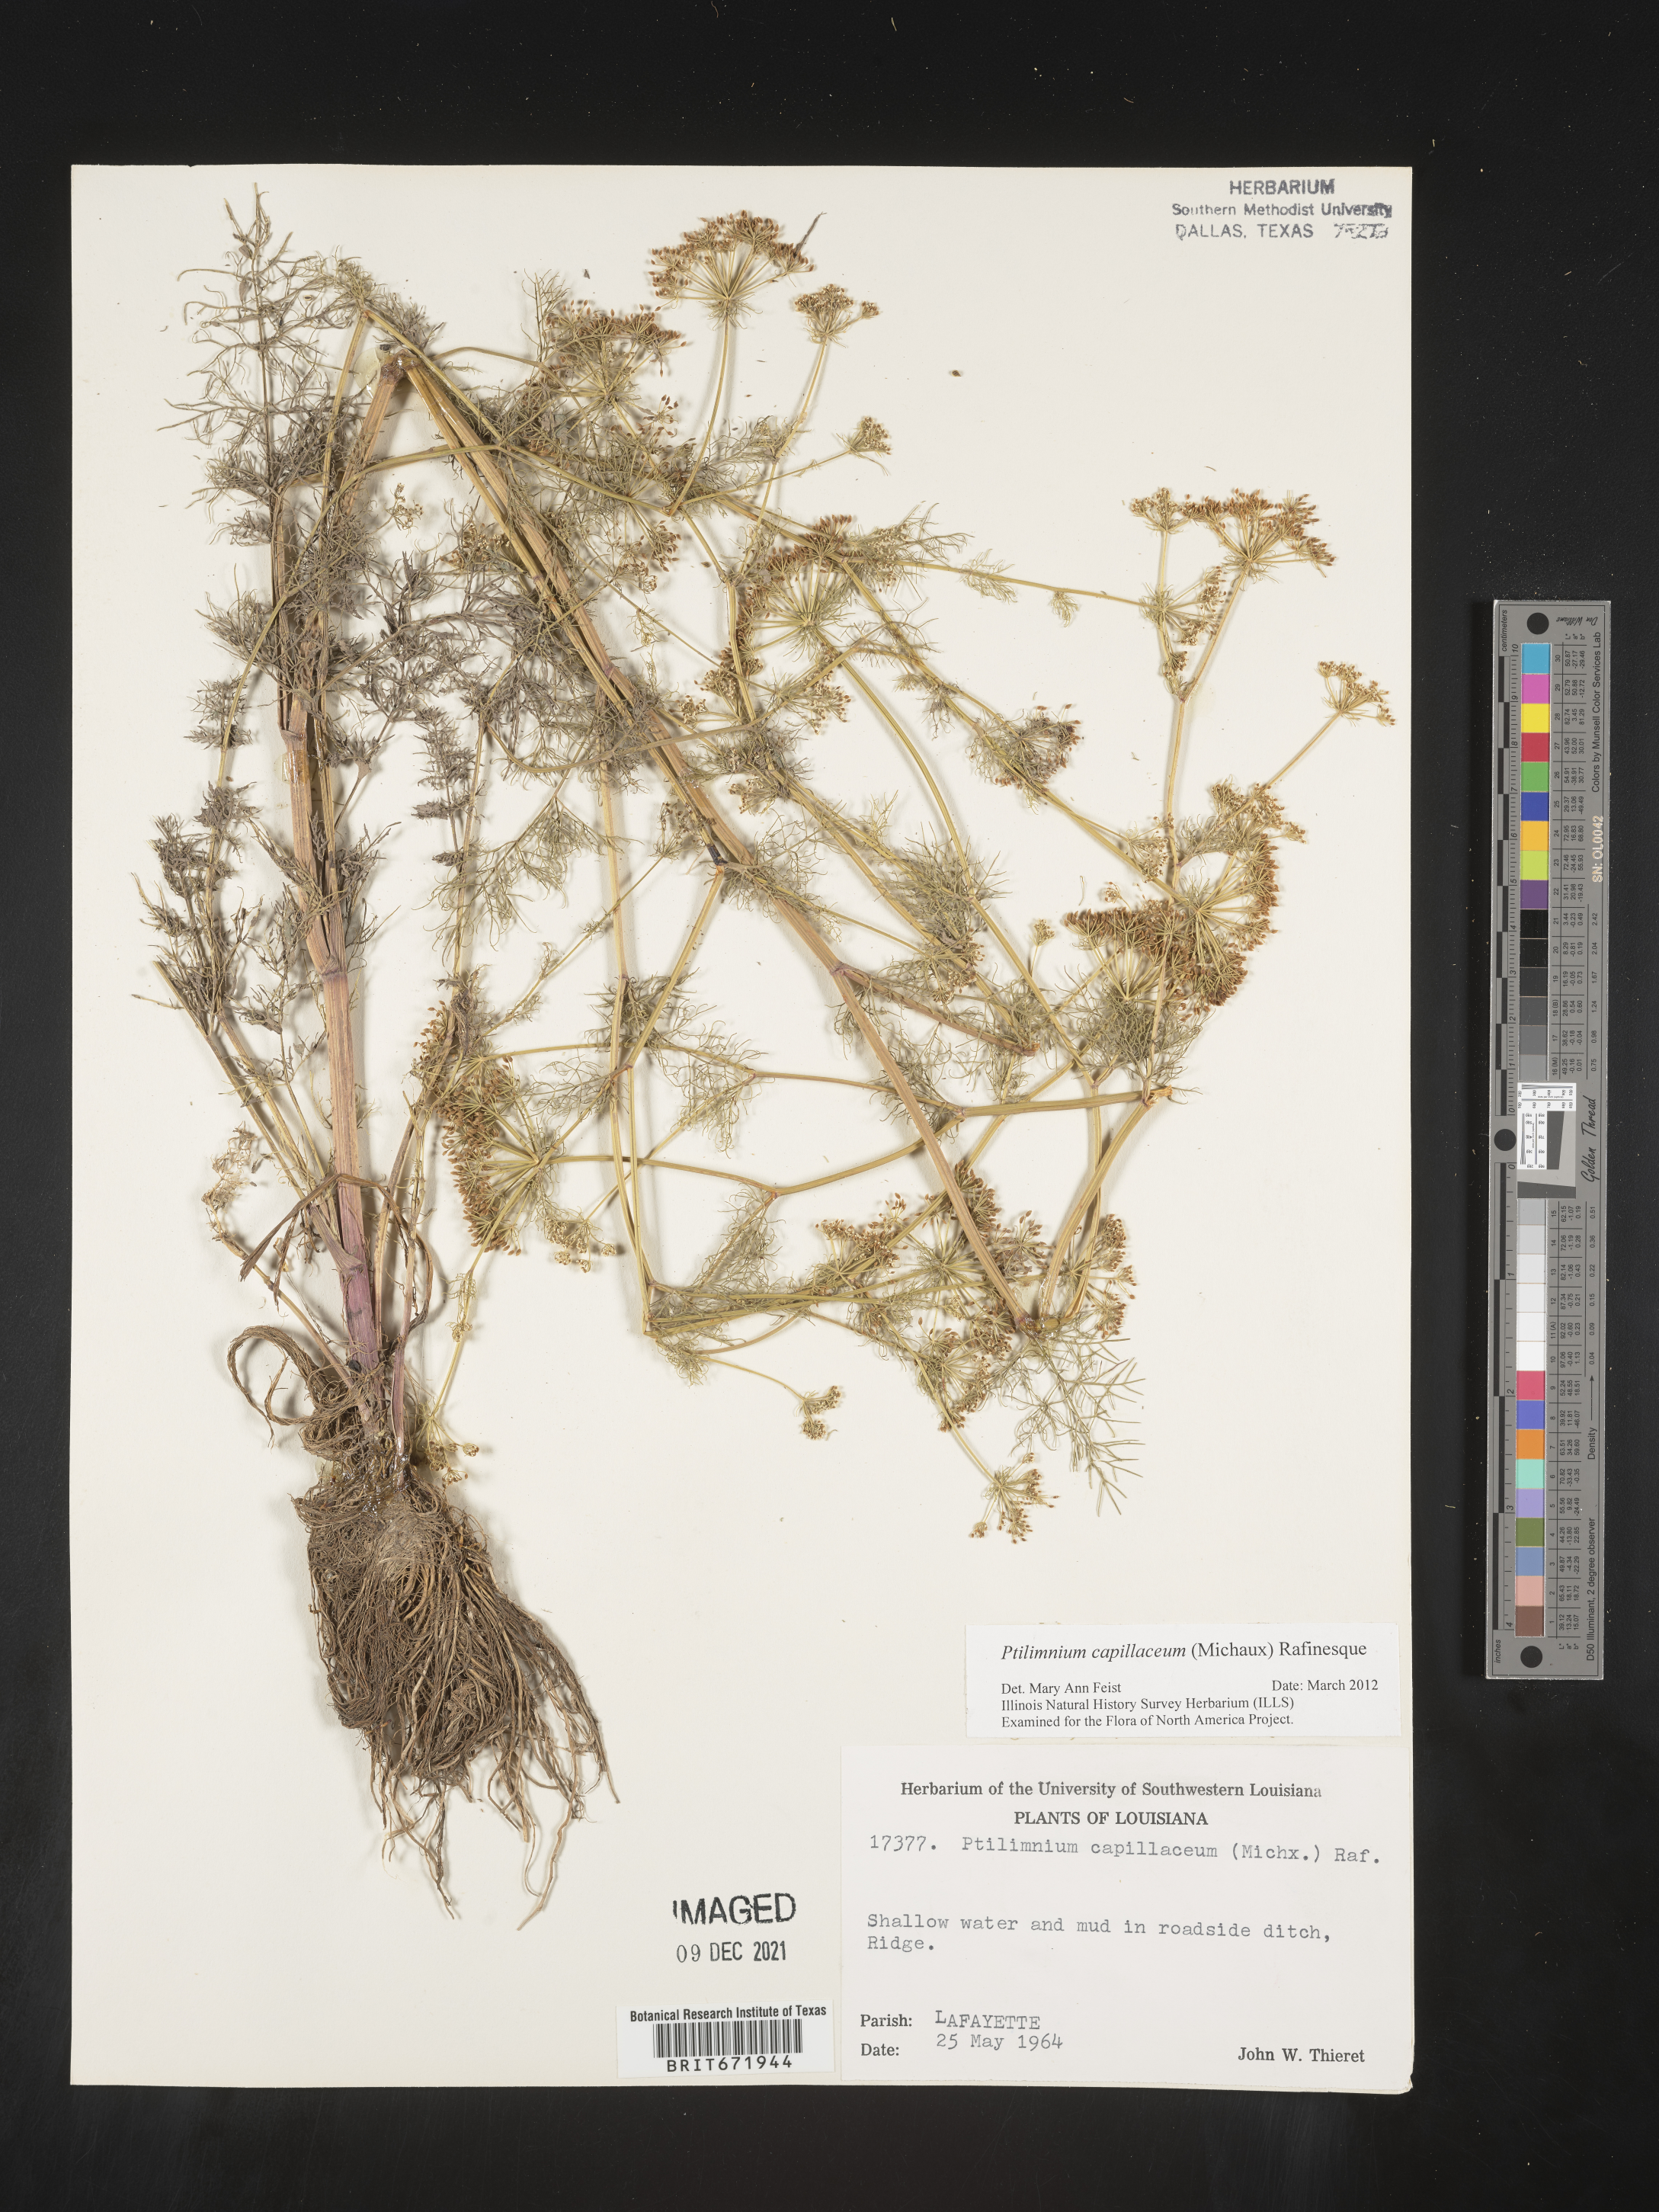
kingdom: Plantae
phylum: Tracheophyta
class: Magnoliopsida
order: Apiales
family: Apiaceae
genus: Ptilimnium
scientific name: Ptilimnium capillaceum
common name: Herbwilliam
